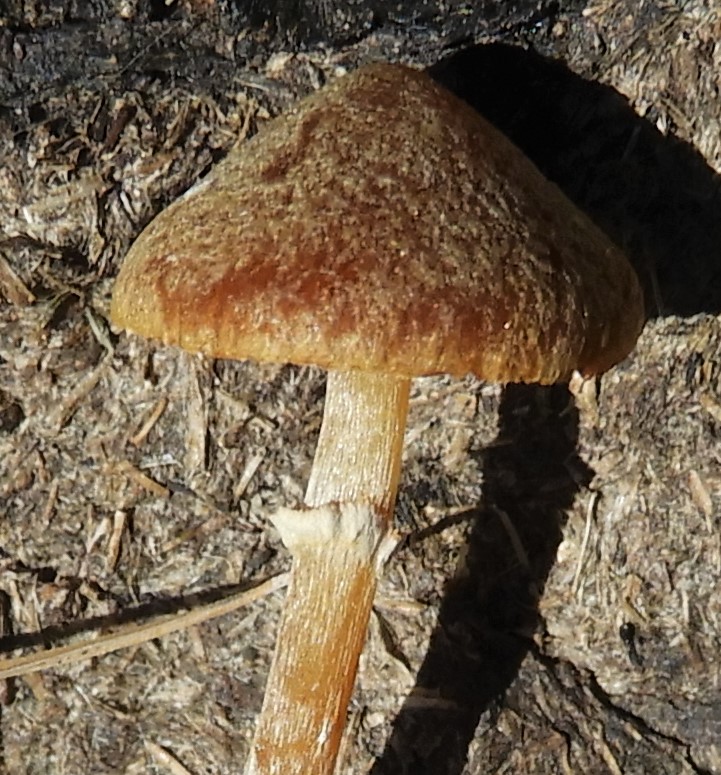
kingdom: Fungi
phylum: Basidiomycota
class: Agaricomycetes
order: Agaricales
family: Hymenogastraceae
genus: Galerina
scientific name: Galerina paludosa
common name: mose-hjelmhat
